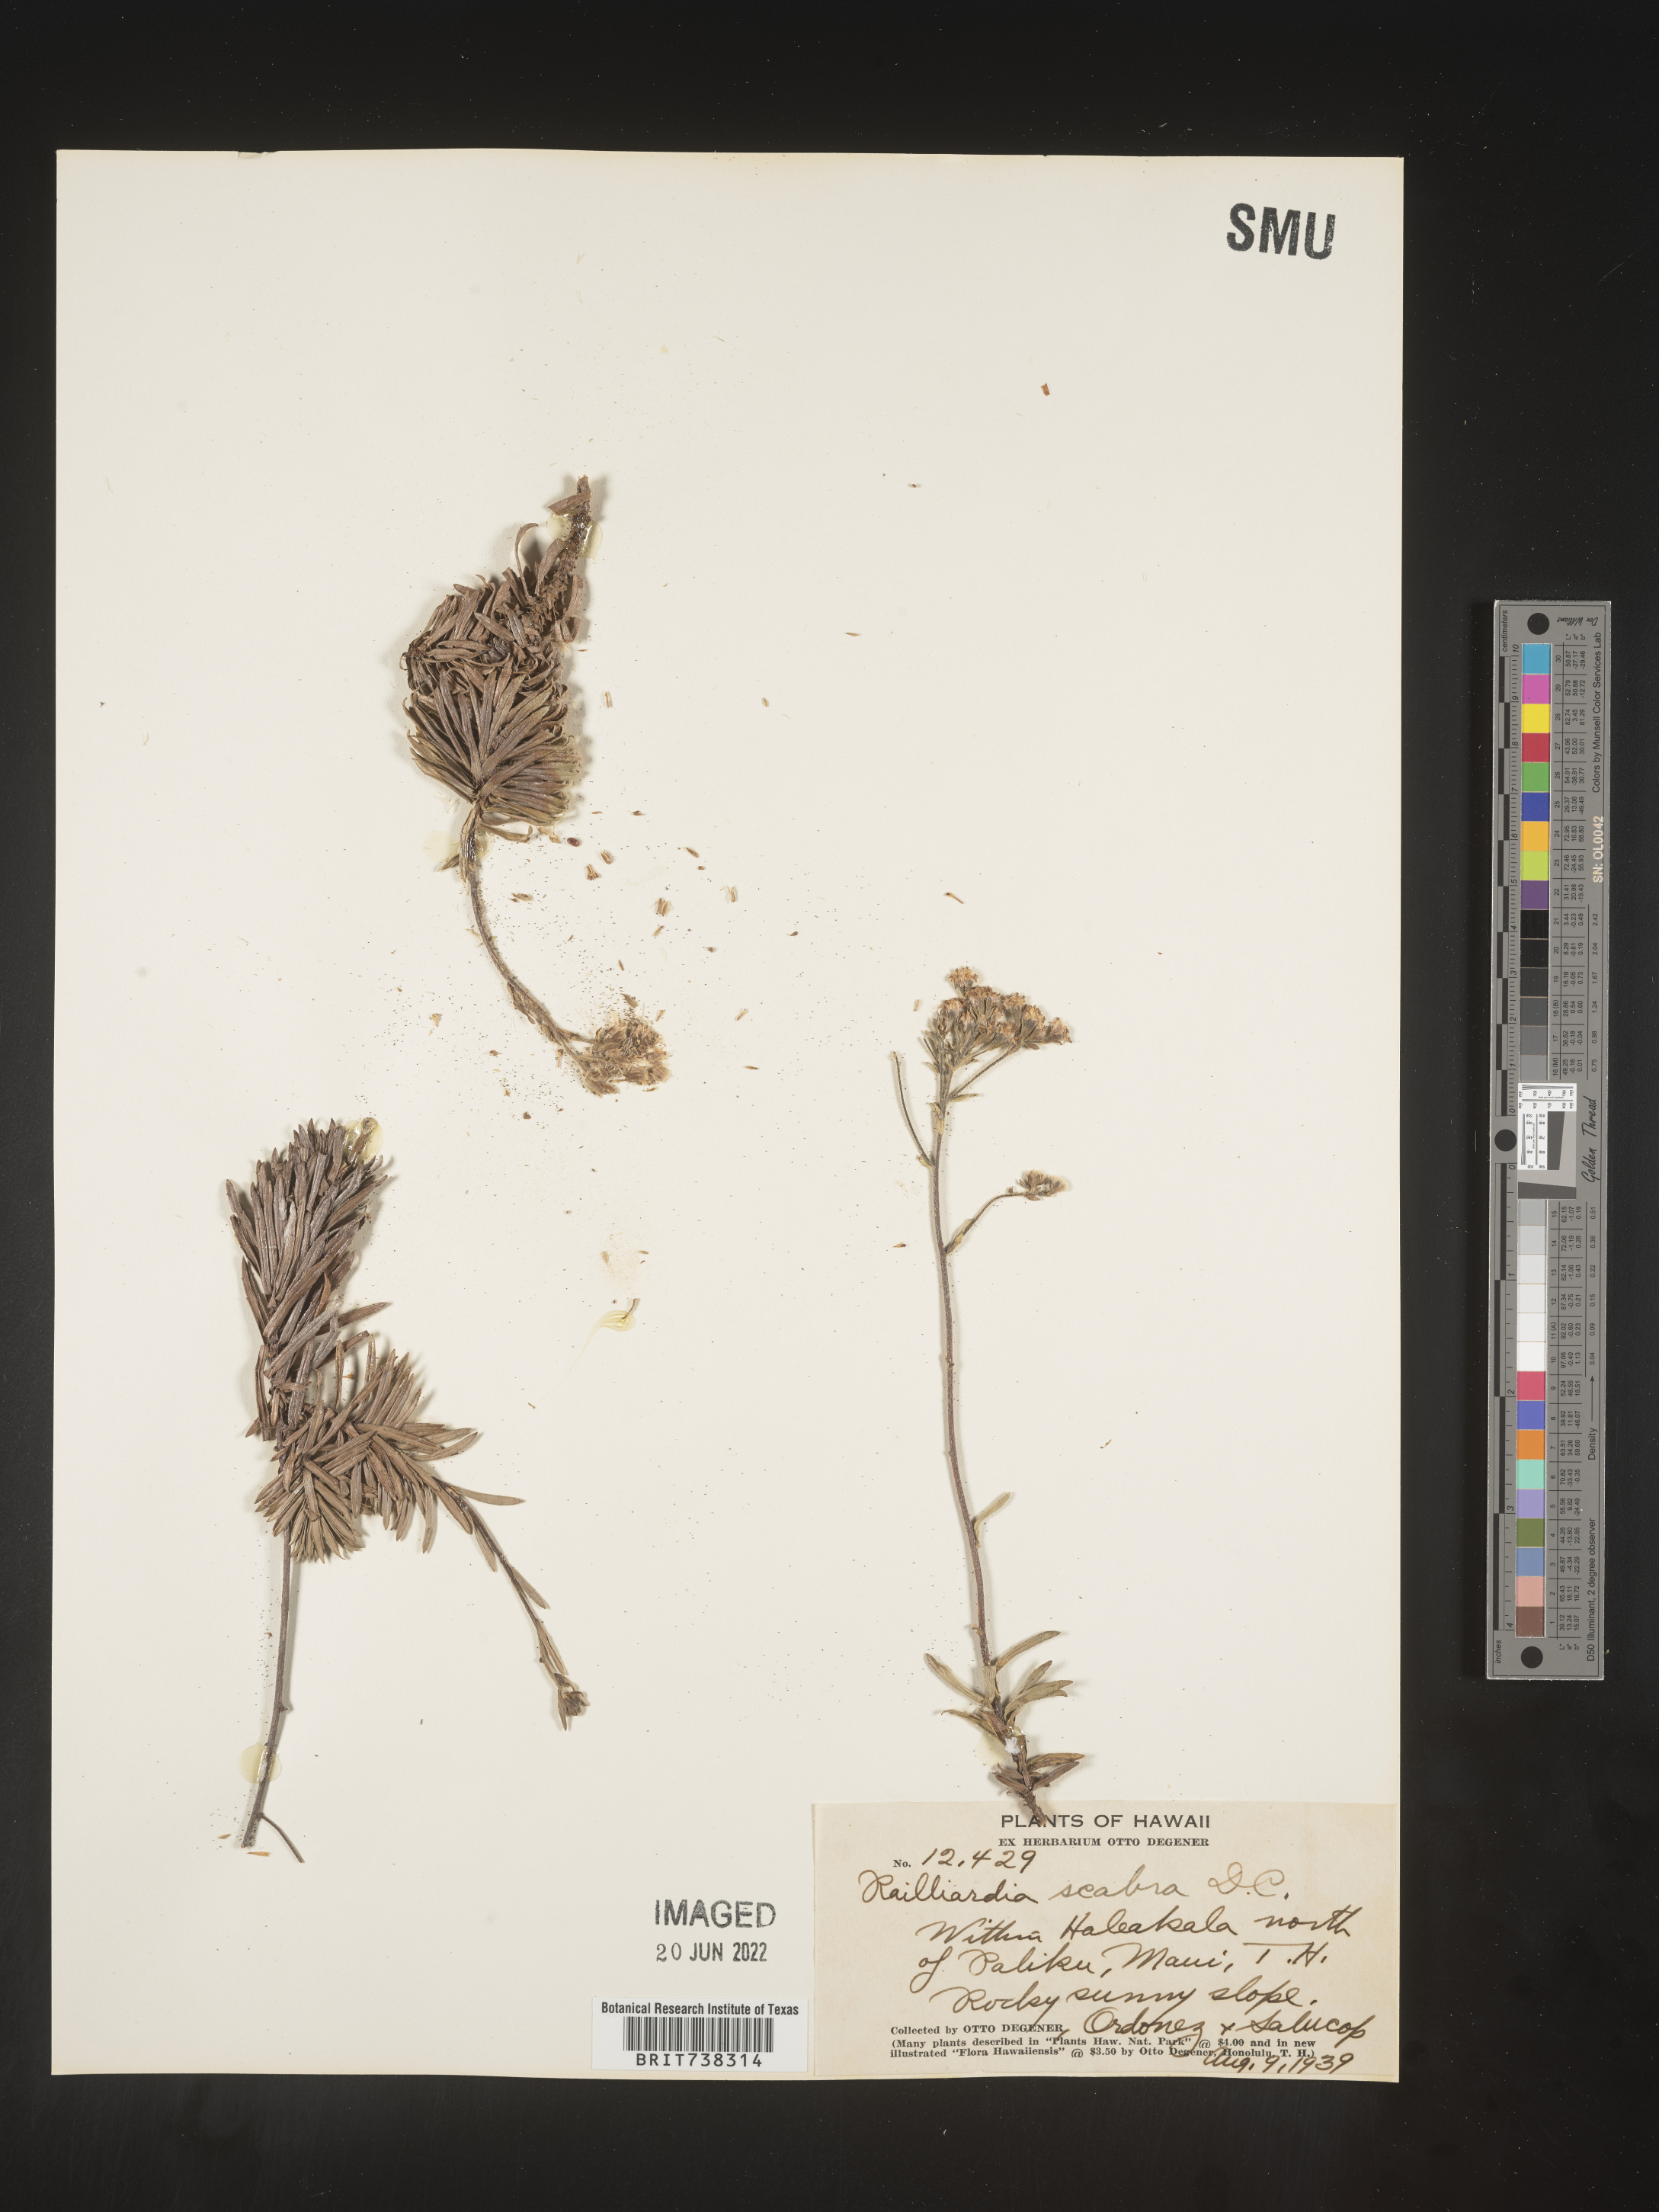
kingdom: Plantae
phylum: Tracheophyta
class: Magnoliopsida
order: Asterales
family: Asteraceae
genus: Dubautia
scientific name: Dubautia
